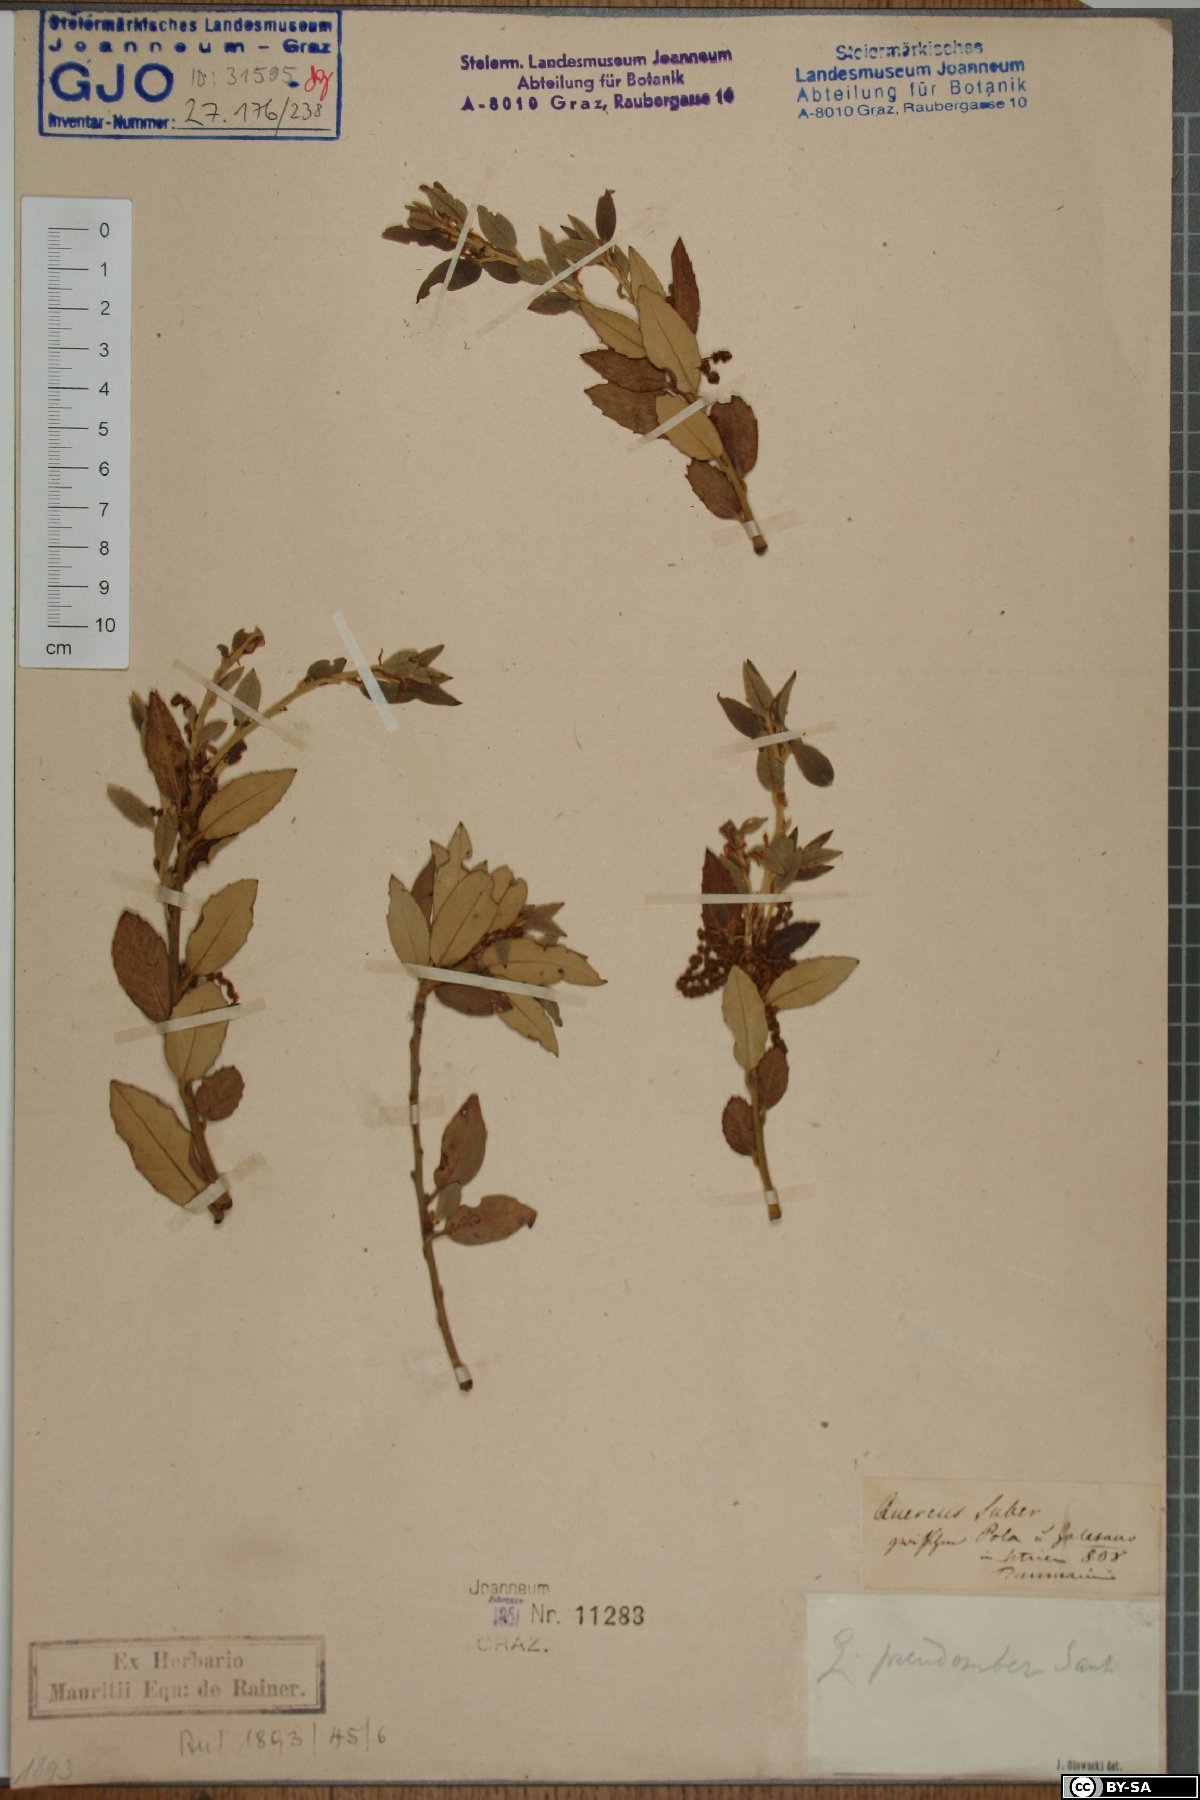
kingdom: Plantae
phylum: Tracheophyta
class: Magnoliopsida
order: Fagales
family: Fagaceae
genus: Quercus
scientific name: Quercus crenata
